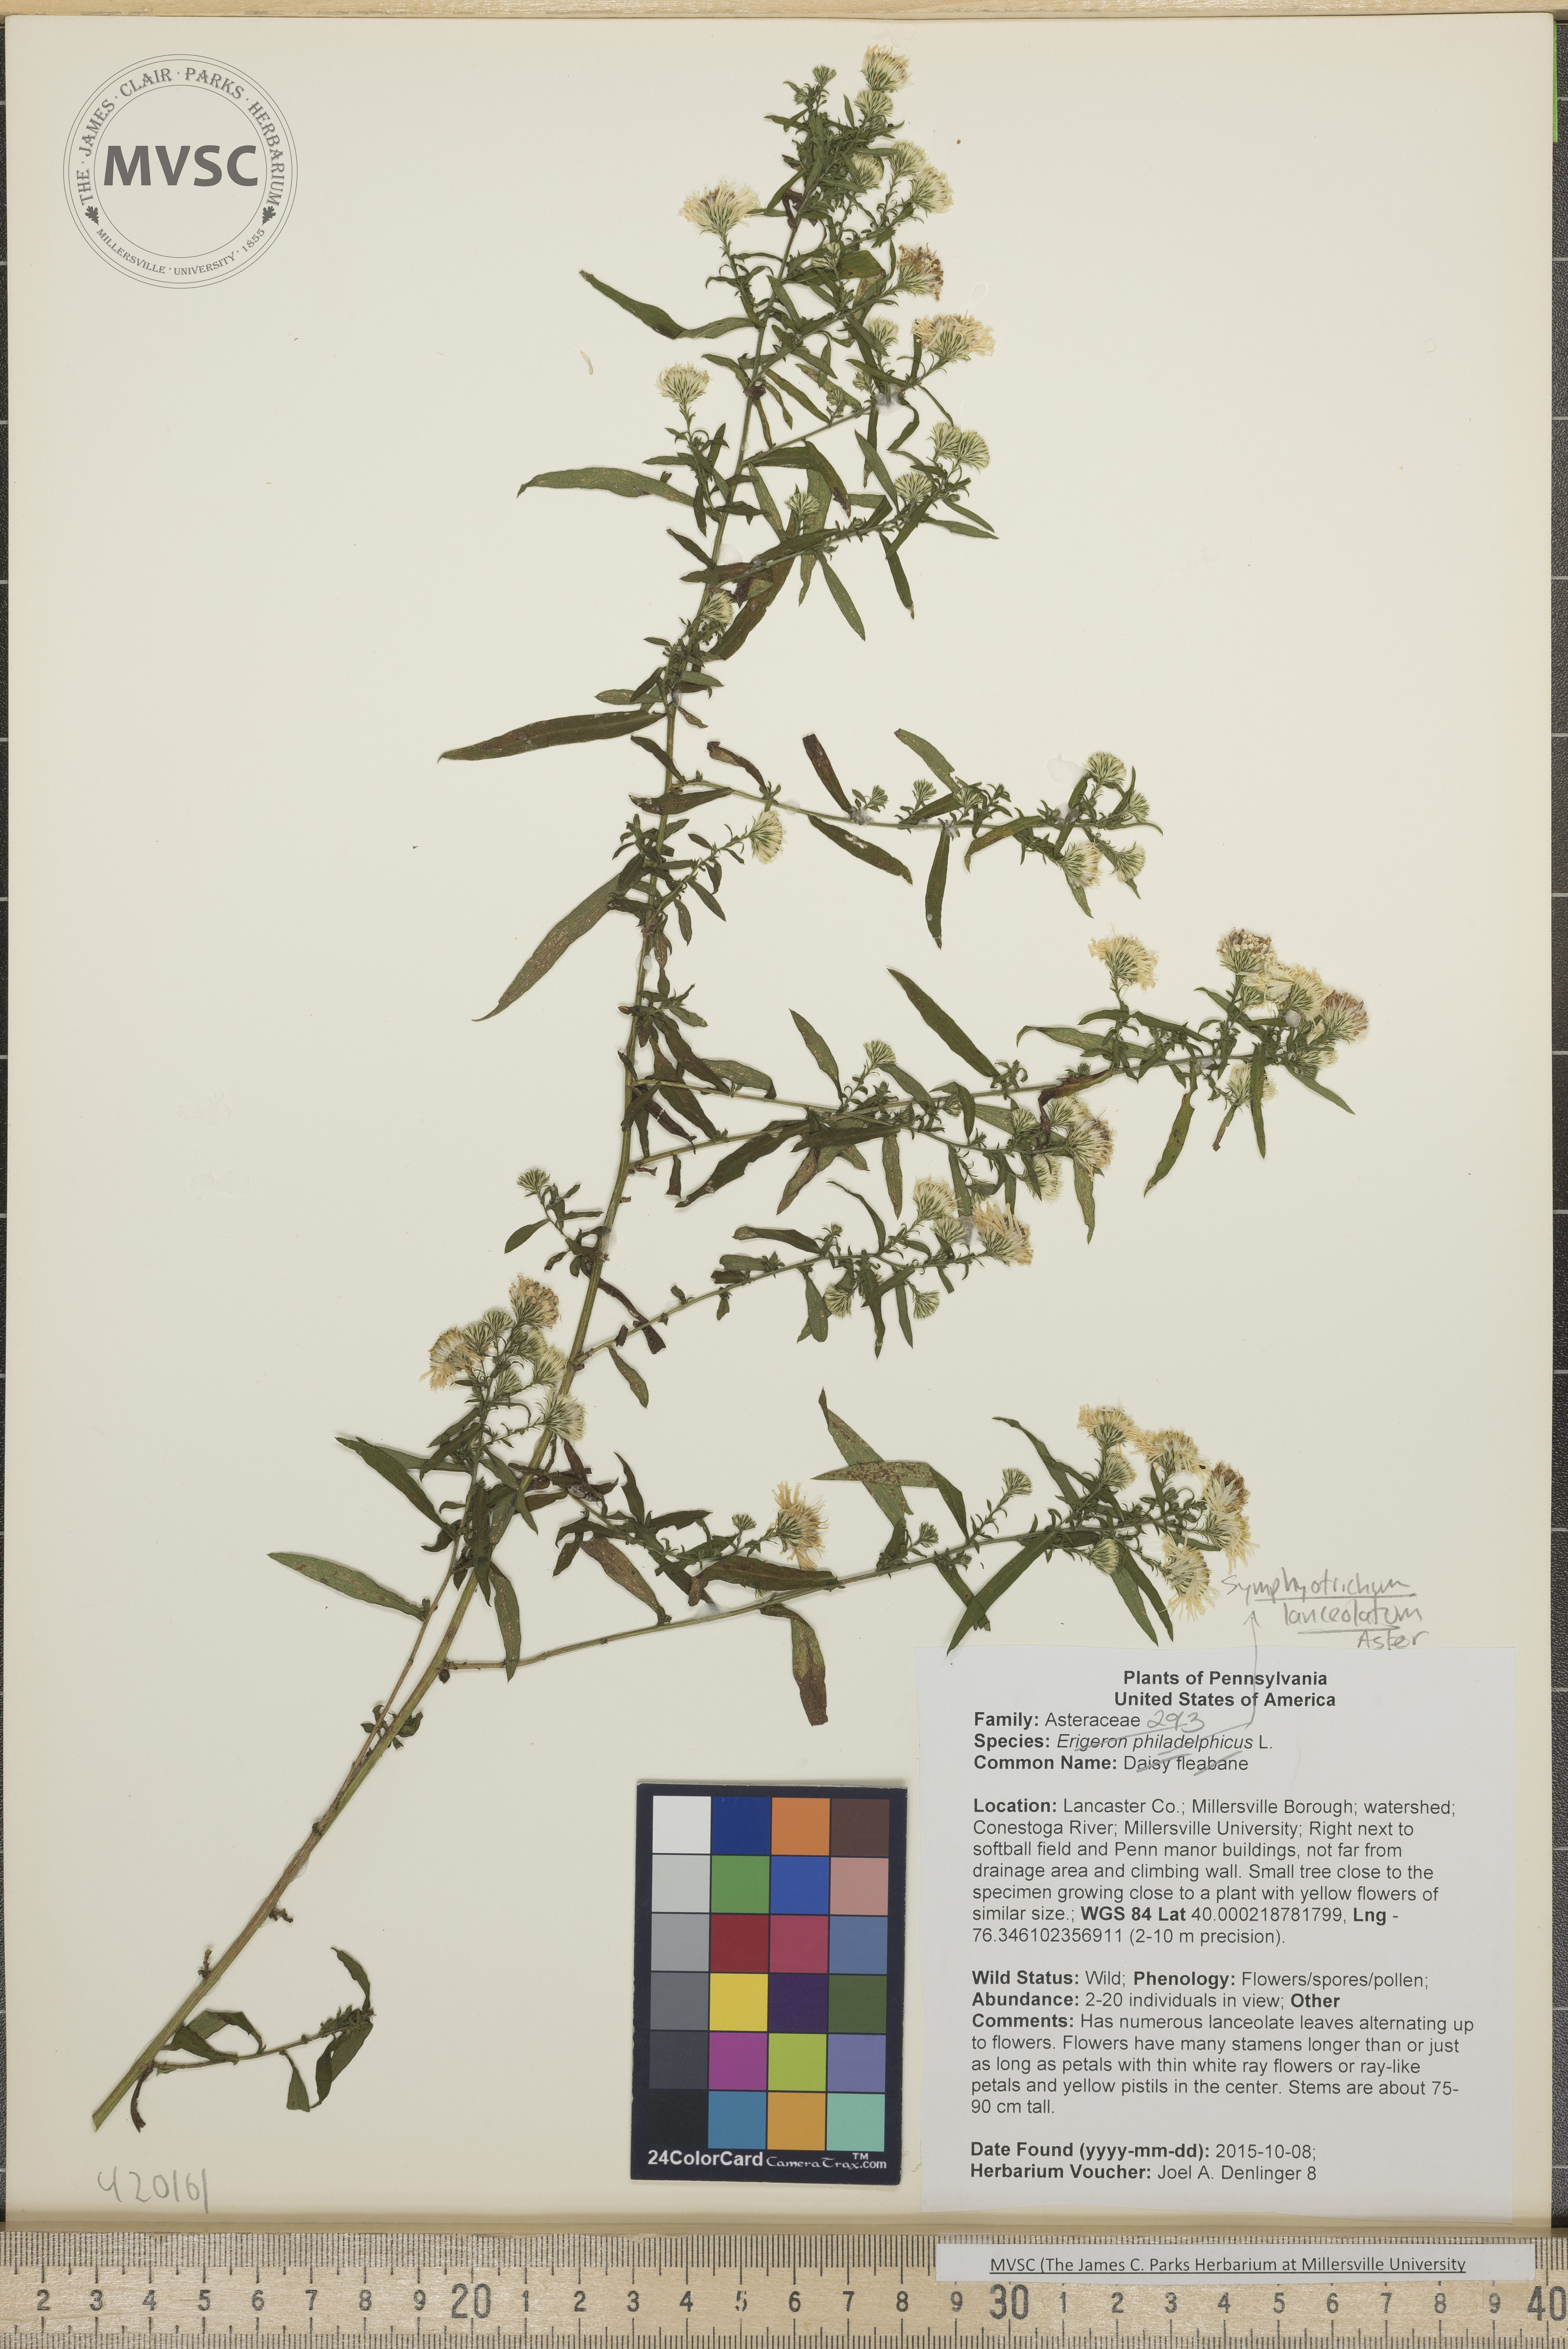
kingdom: Plantae
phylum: Tracheophyta
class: Magnoliopsida
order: Asterales
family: Asteraceae
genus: Symphyotrichum
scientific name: Symphyotrichum lanceolatum
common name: Aster
